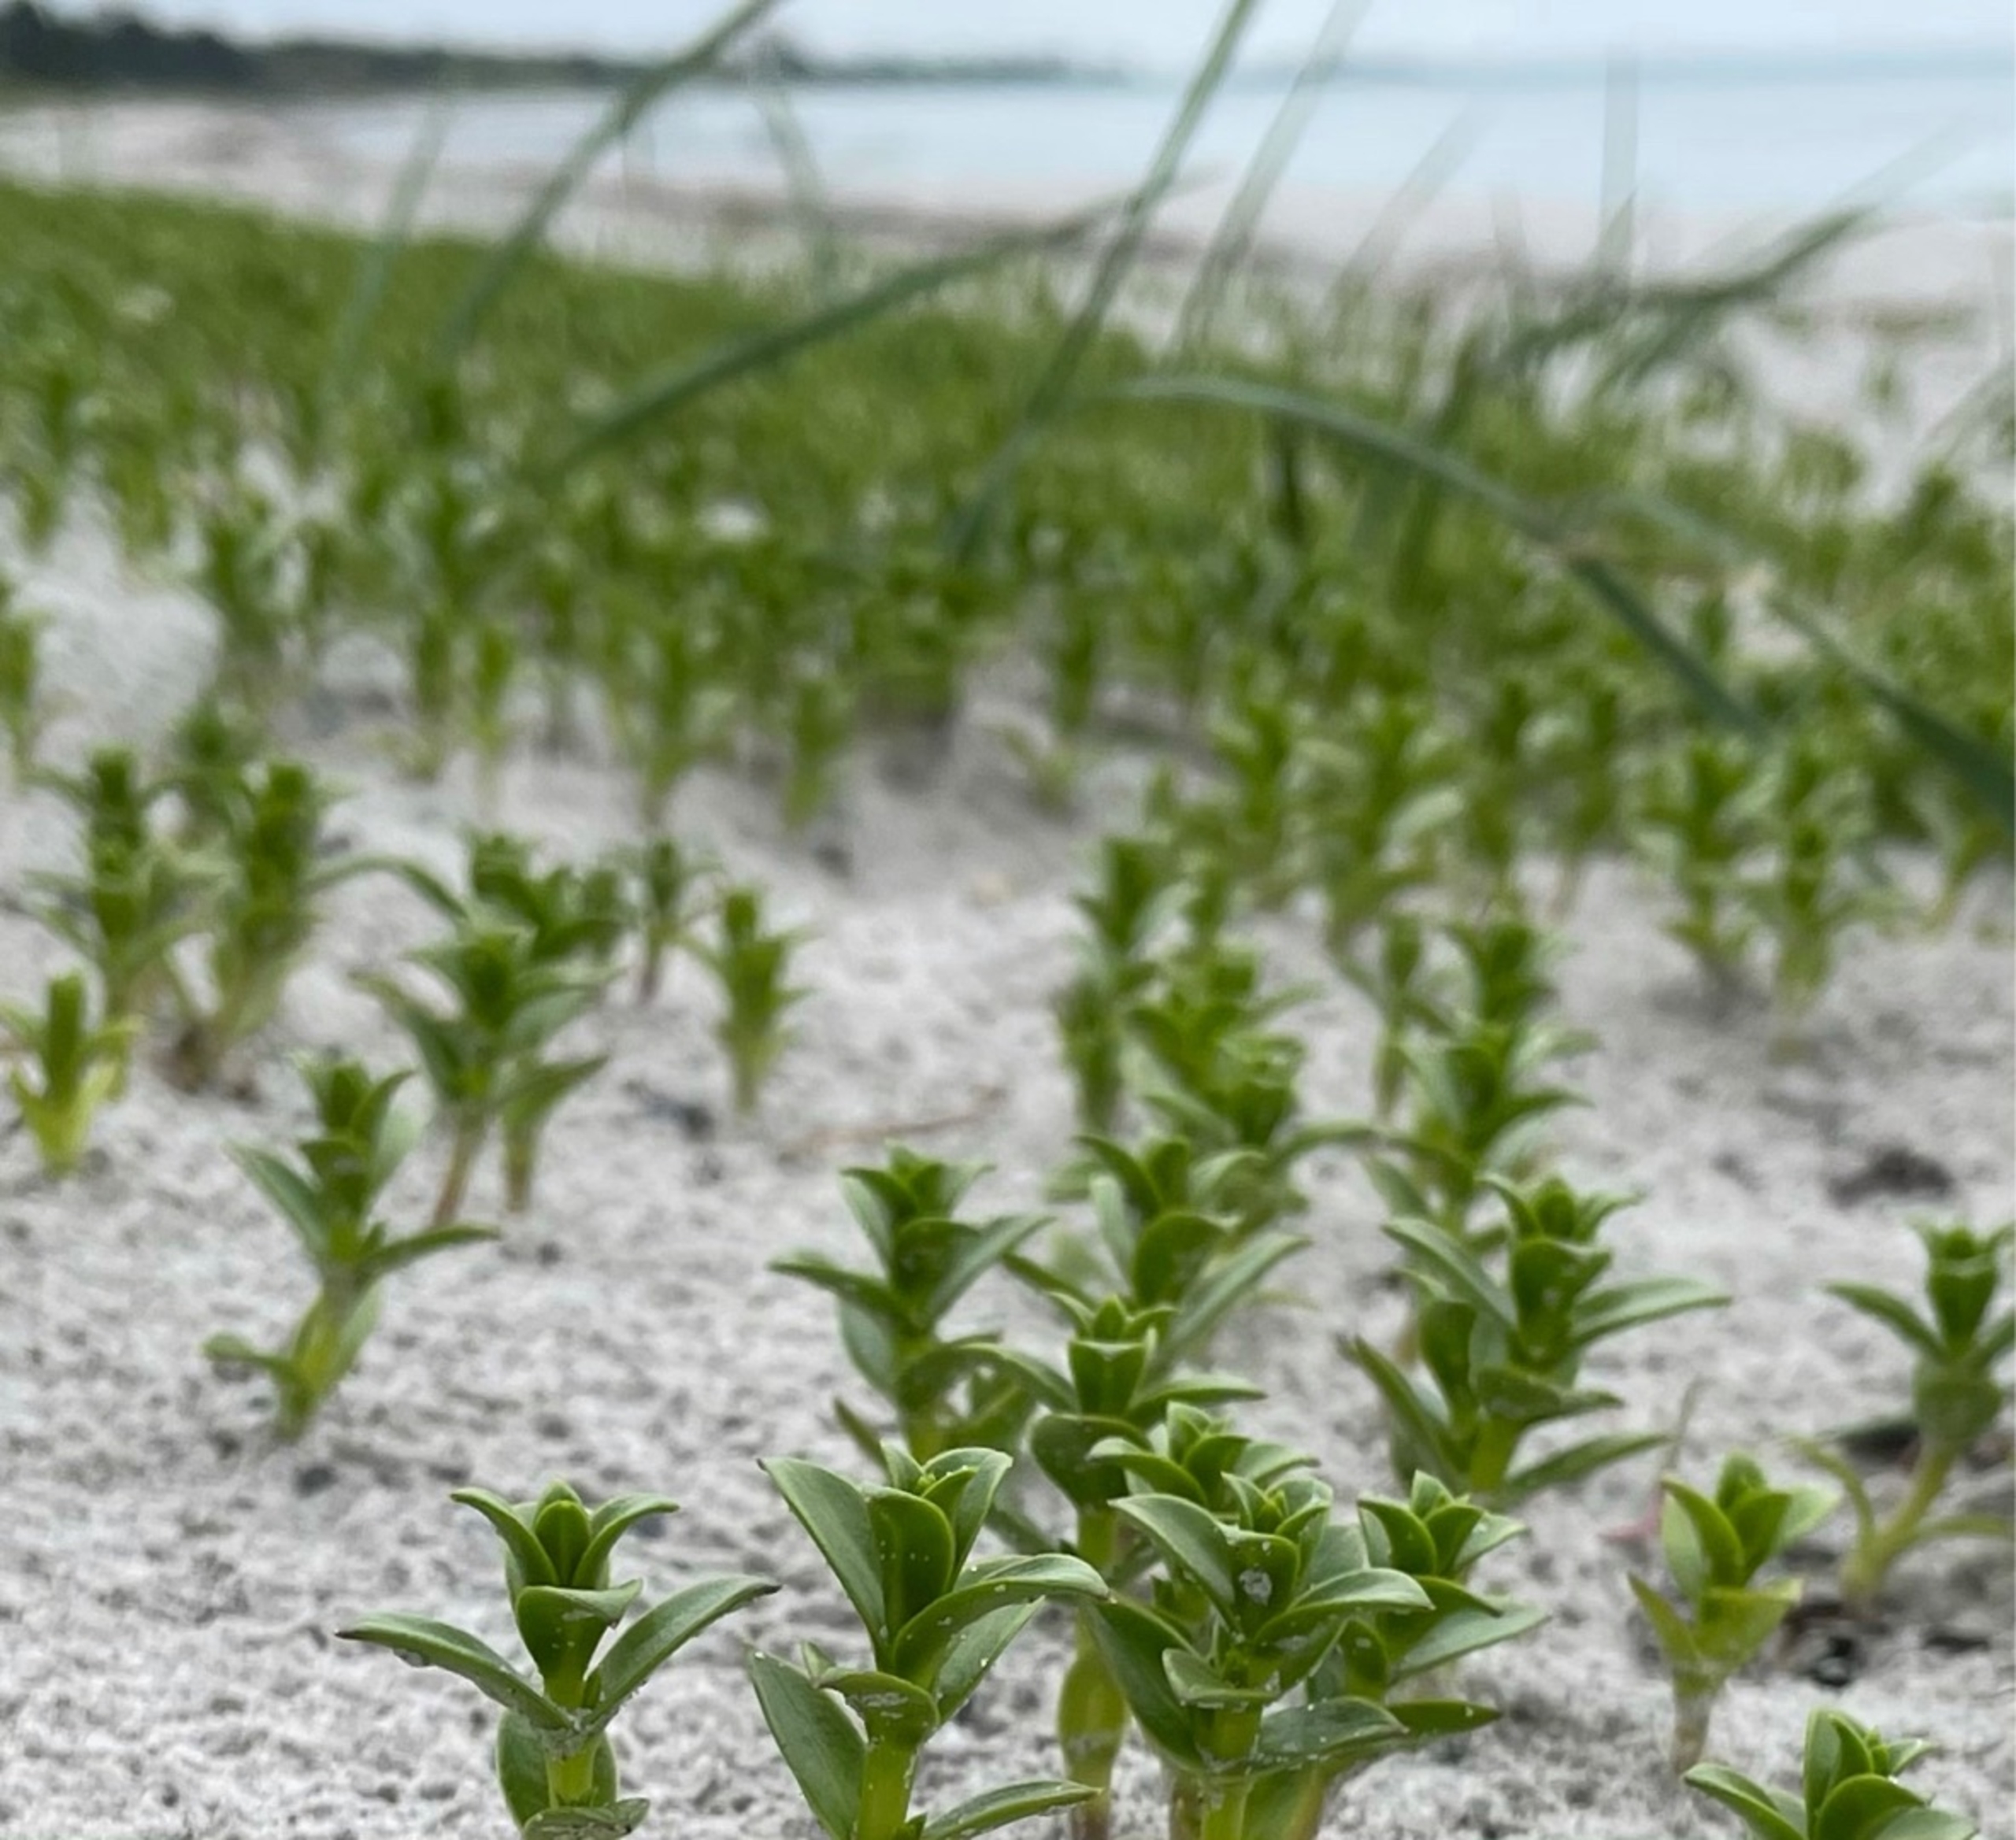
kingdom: Plantae
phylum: Tracheophyta
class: Magnoliopsida
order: Caryophyllales
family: Caryophyllaceae
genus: Honckenya
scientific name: Honckenya peploides
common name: Strandarve
